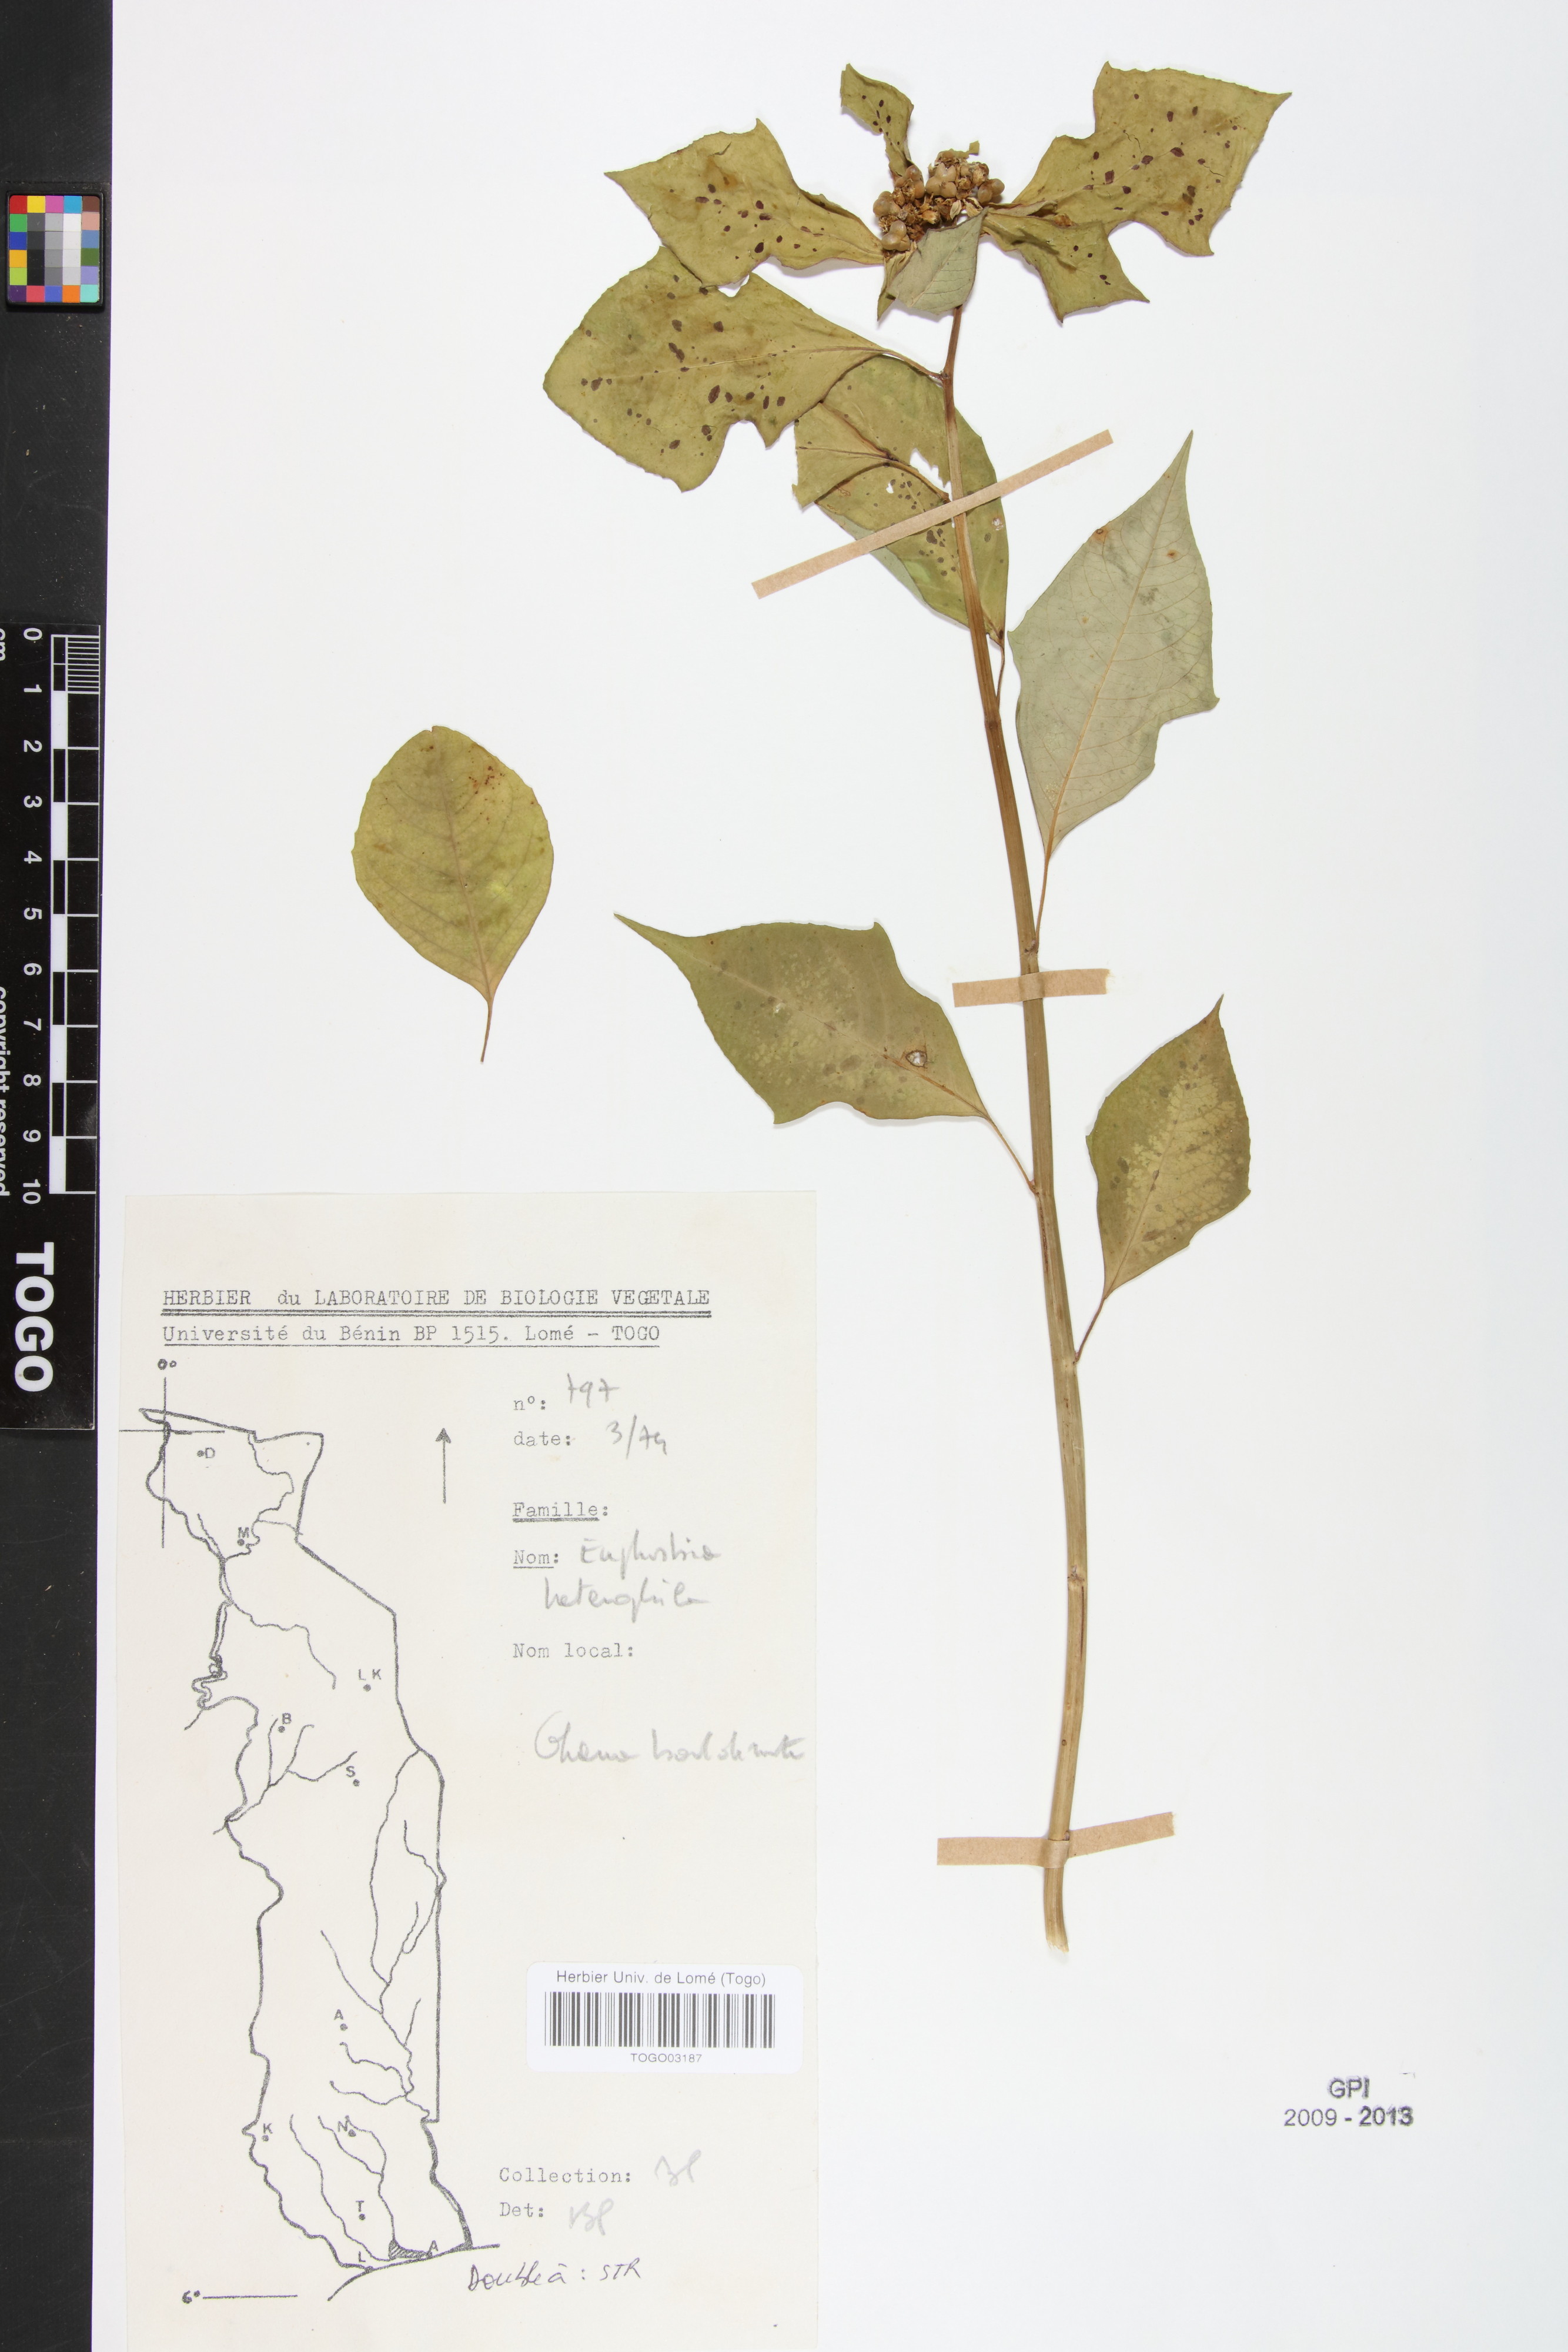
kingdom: Plantae
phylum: Tracheophyta
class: Magnoliopsida
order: Malpighiales
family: Euphorbiaceae
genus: Euphorbia
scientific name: Euphorbia heterophylla
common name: Mexican fireplant
